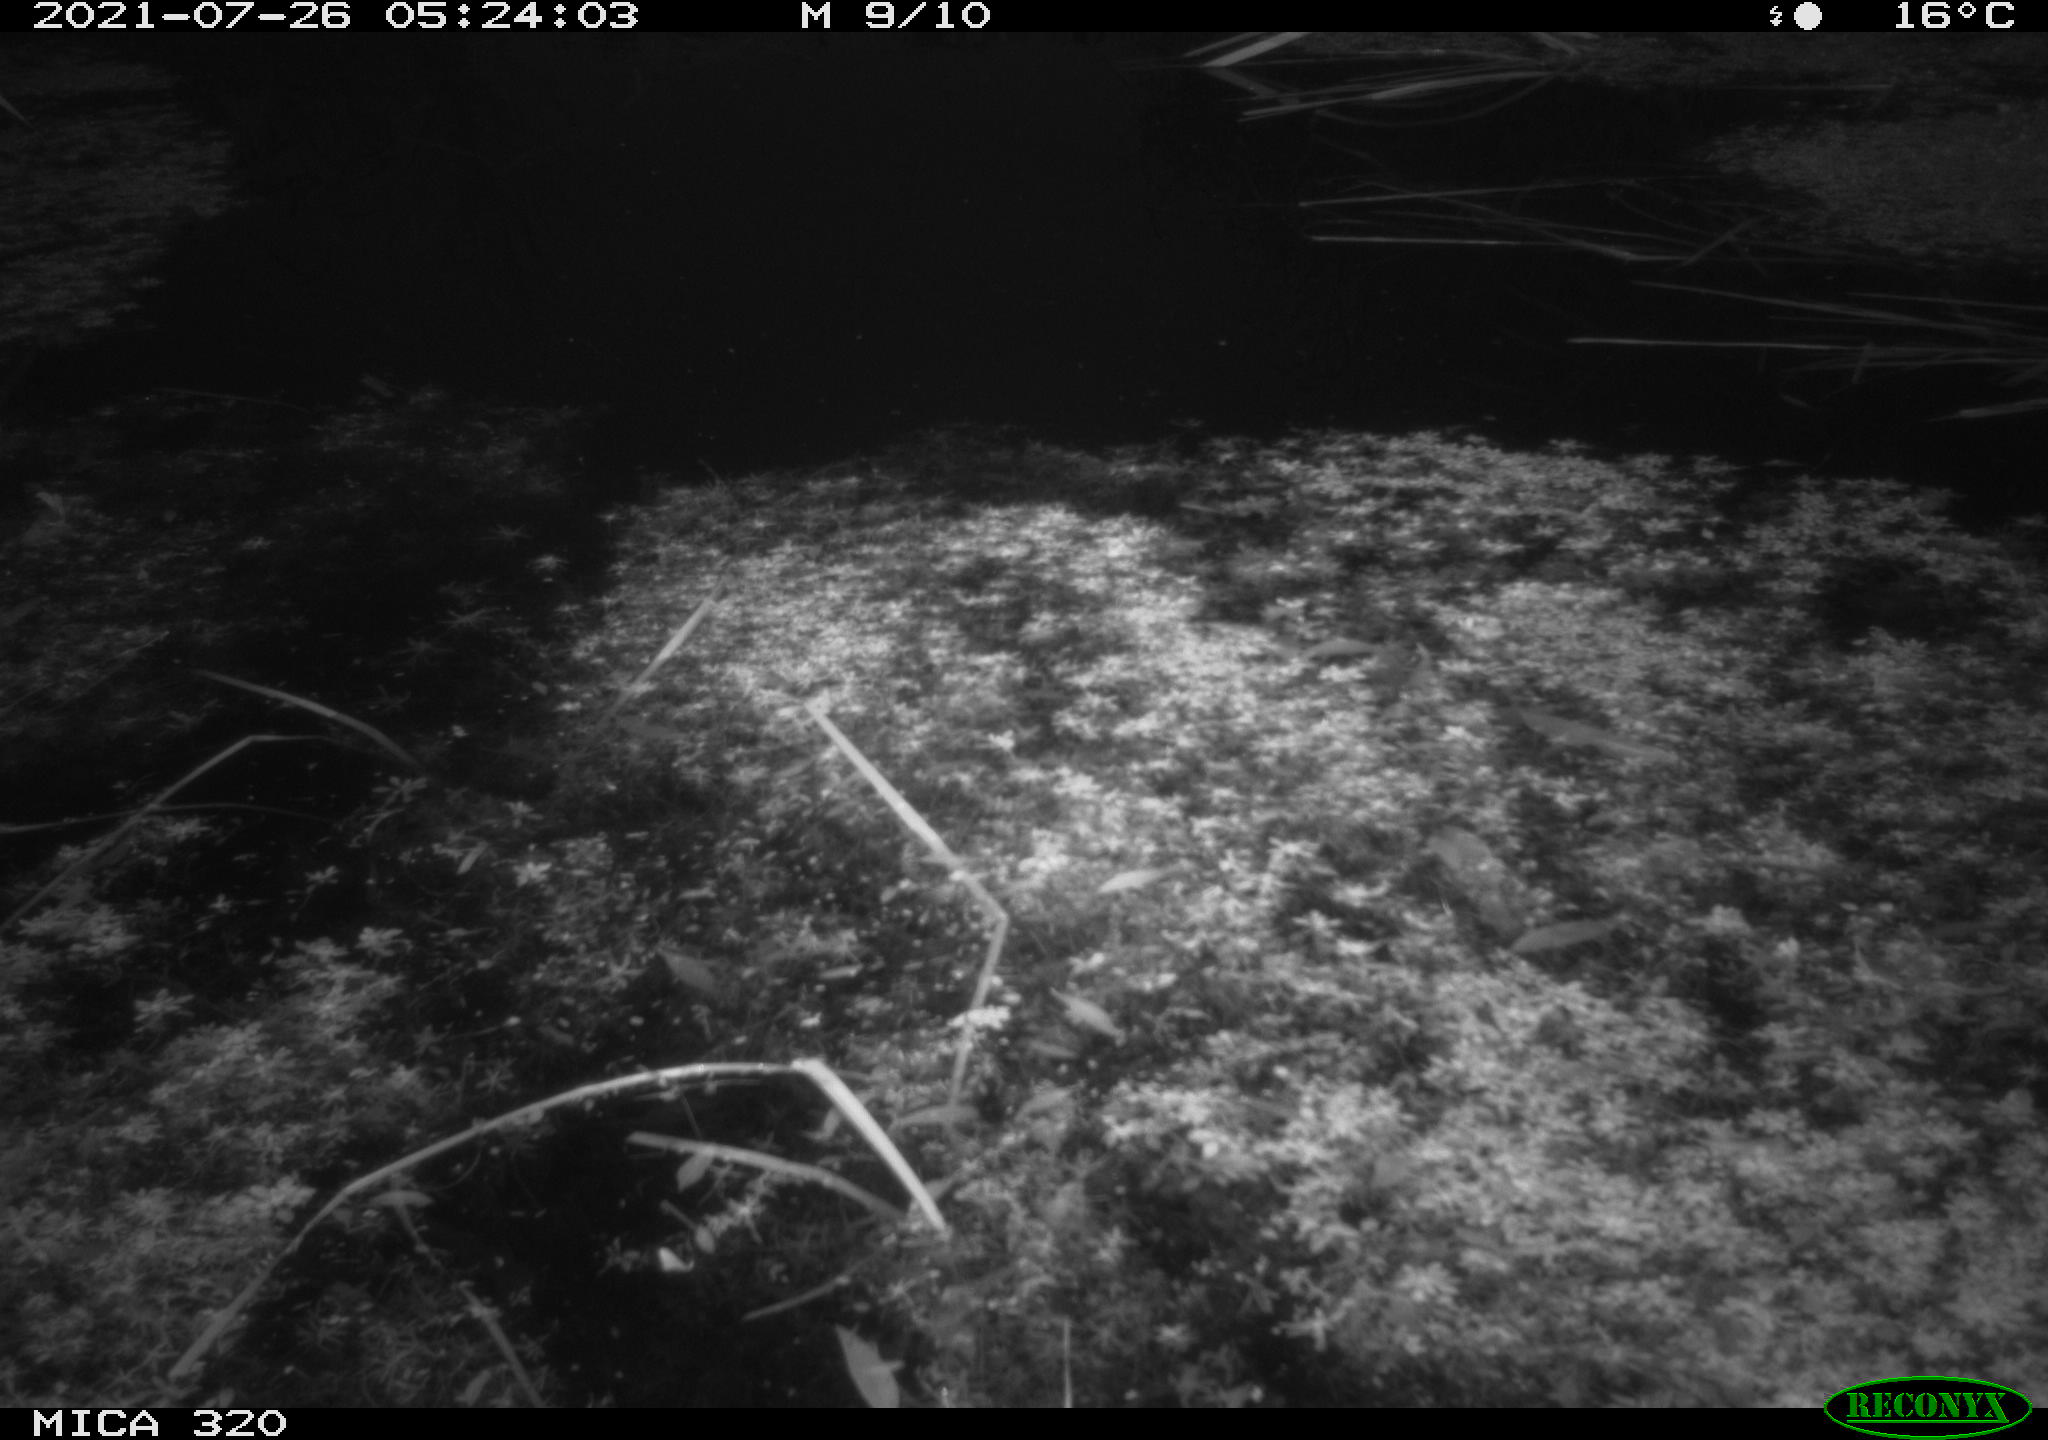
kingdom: Animalia
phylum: Chordata
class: Aves
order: Gruiformes
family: Rallidae
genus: Gallinula
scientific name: Gallinula chloropus
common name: Common moorhen
